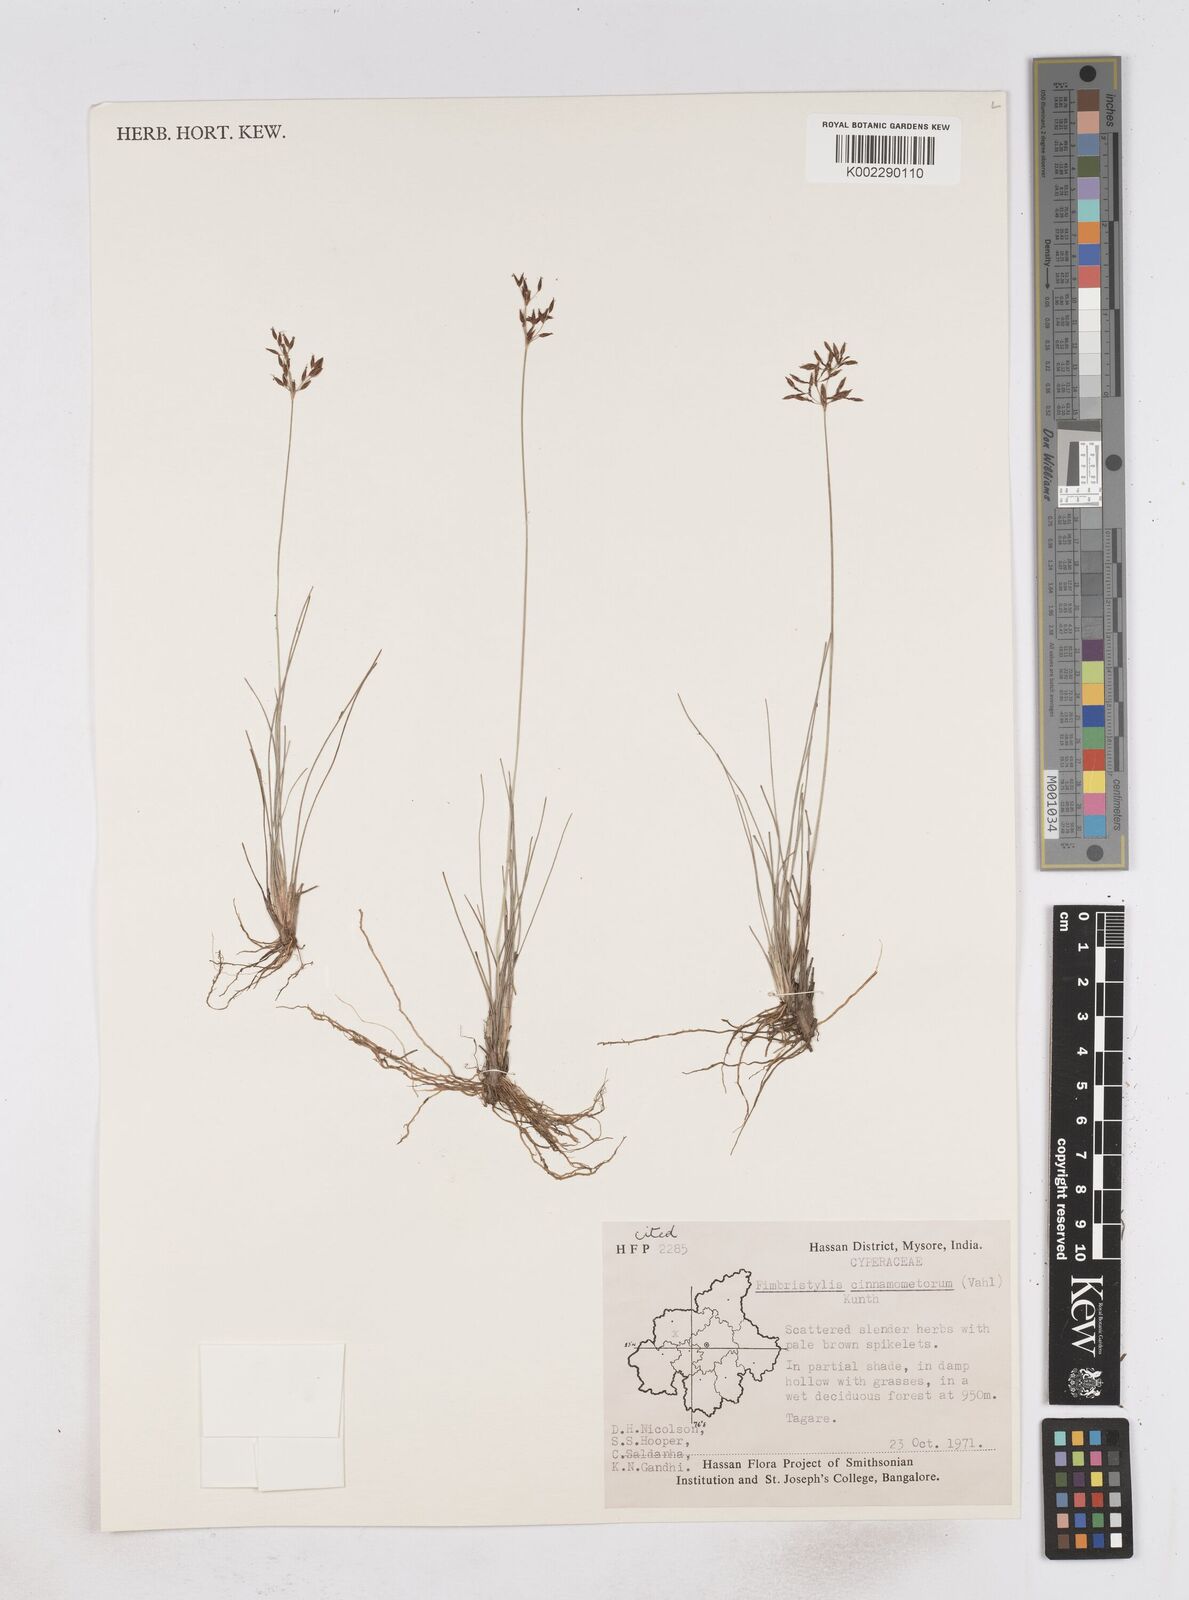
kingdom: Plantae
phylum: Tracheophyta
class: Liliopsida
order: Poales
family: Cyperaceae
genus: Fimbristylis
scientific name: Fimbristylis cinnamometorum
